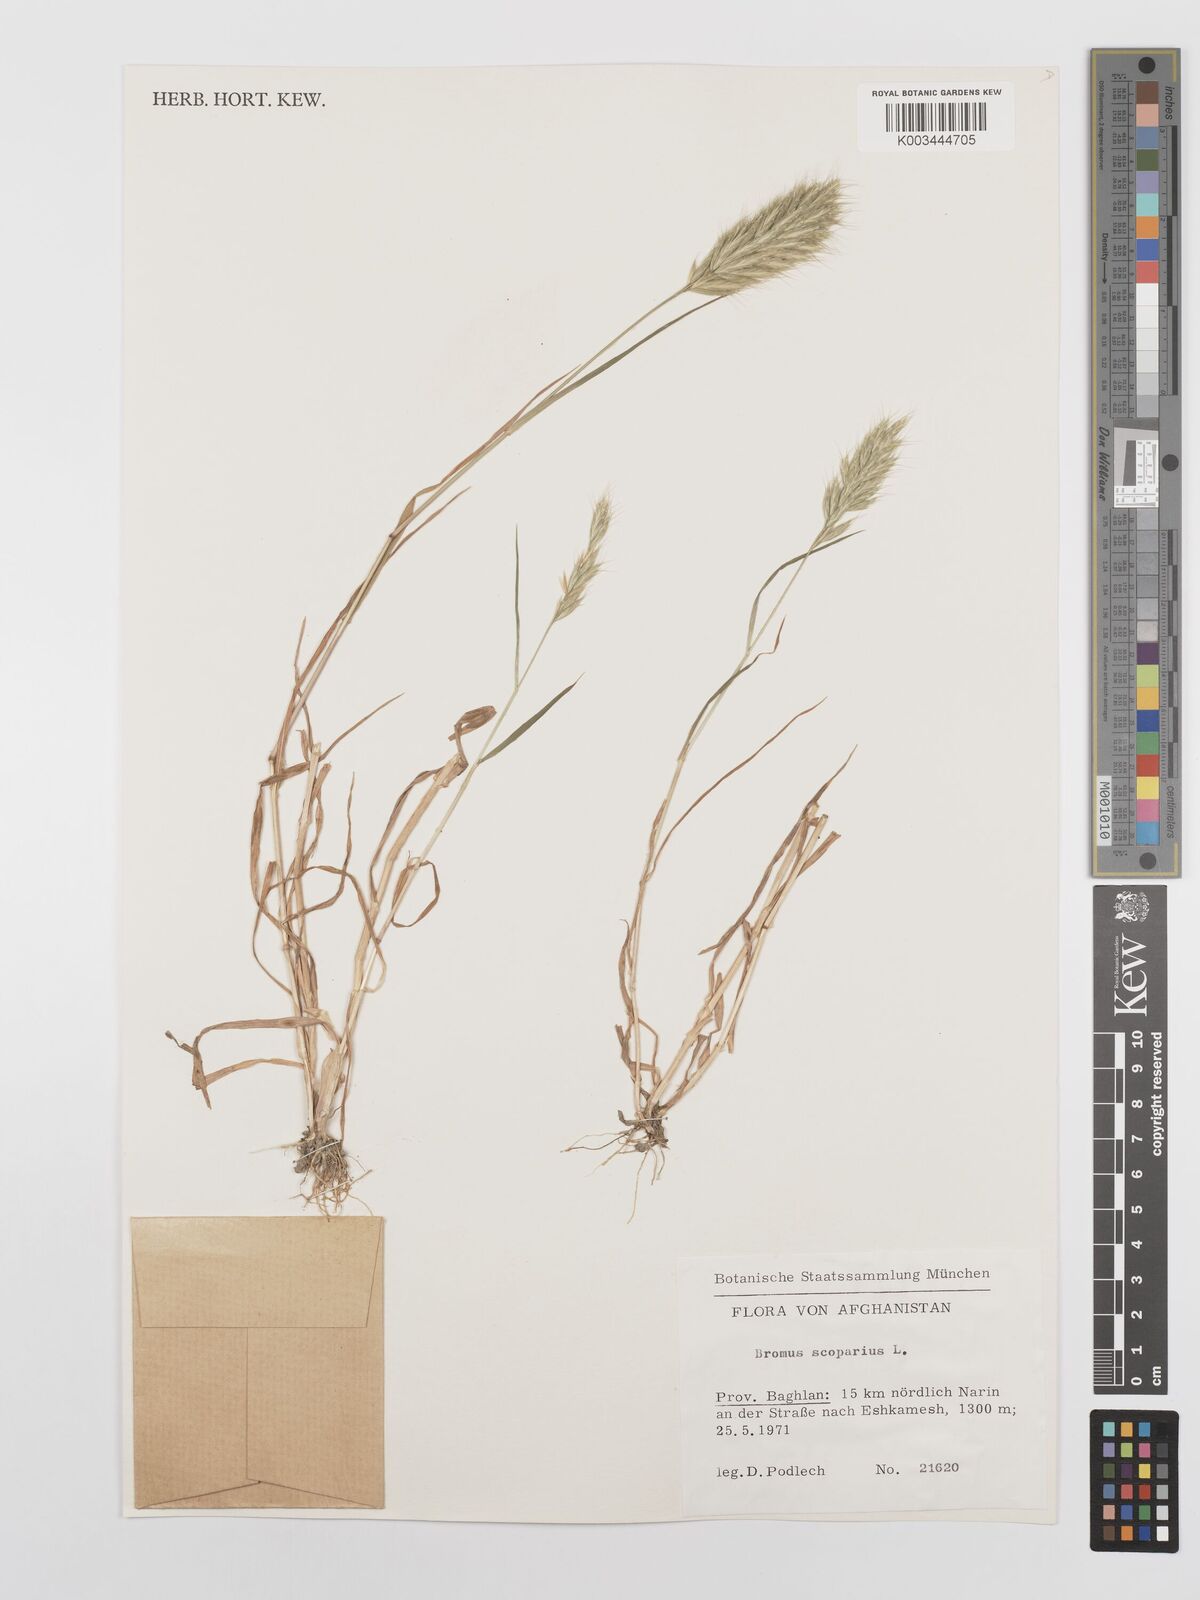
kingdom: Plantae
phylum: Tracheophyta
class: Liliopsida
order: Poales
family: Poaceae
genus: Bromus
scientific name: Bromus scoparius
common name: Broom brome
